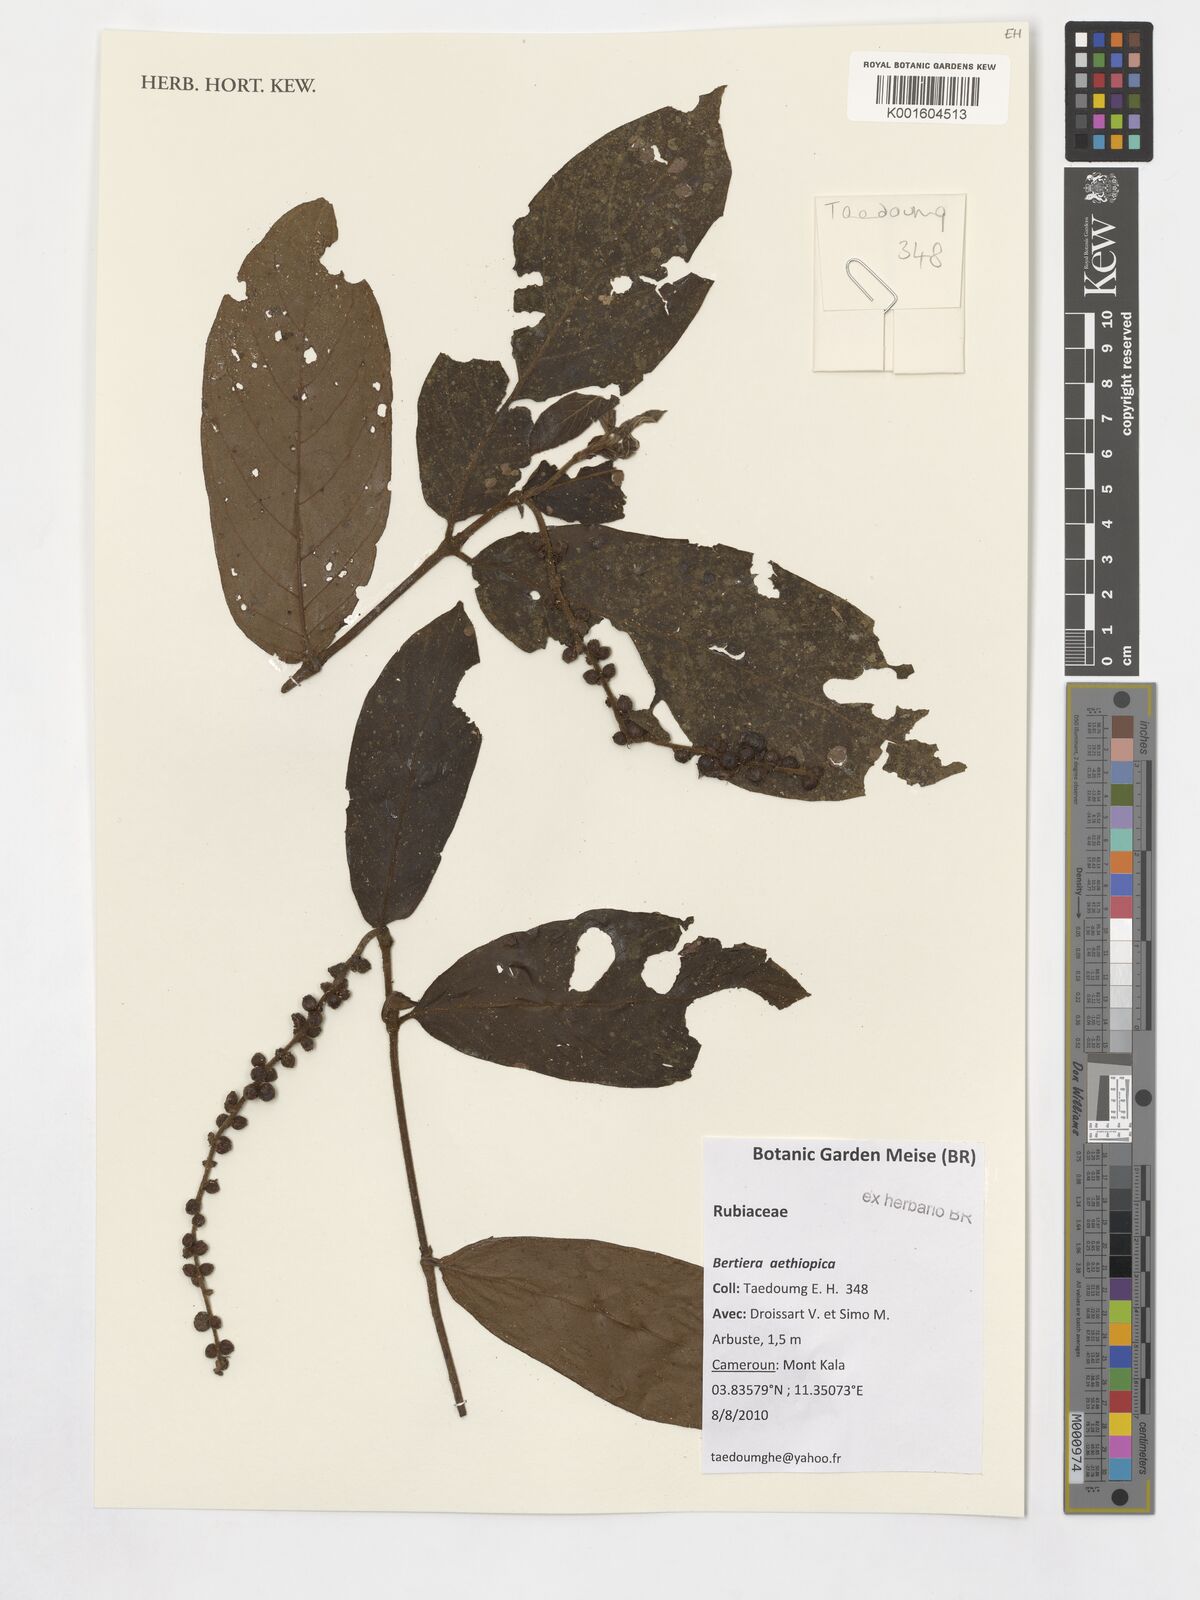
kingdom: Plantae
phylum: Tracheophyta
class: Magnoliopsida
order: Gentianales
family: Rubiaceae
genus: Bertiera
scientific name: Bertiera aethiopica
